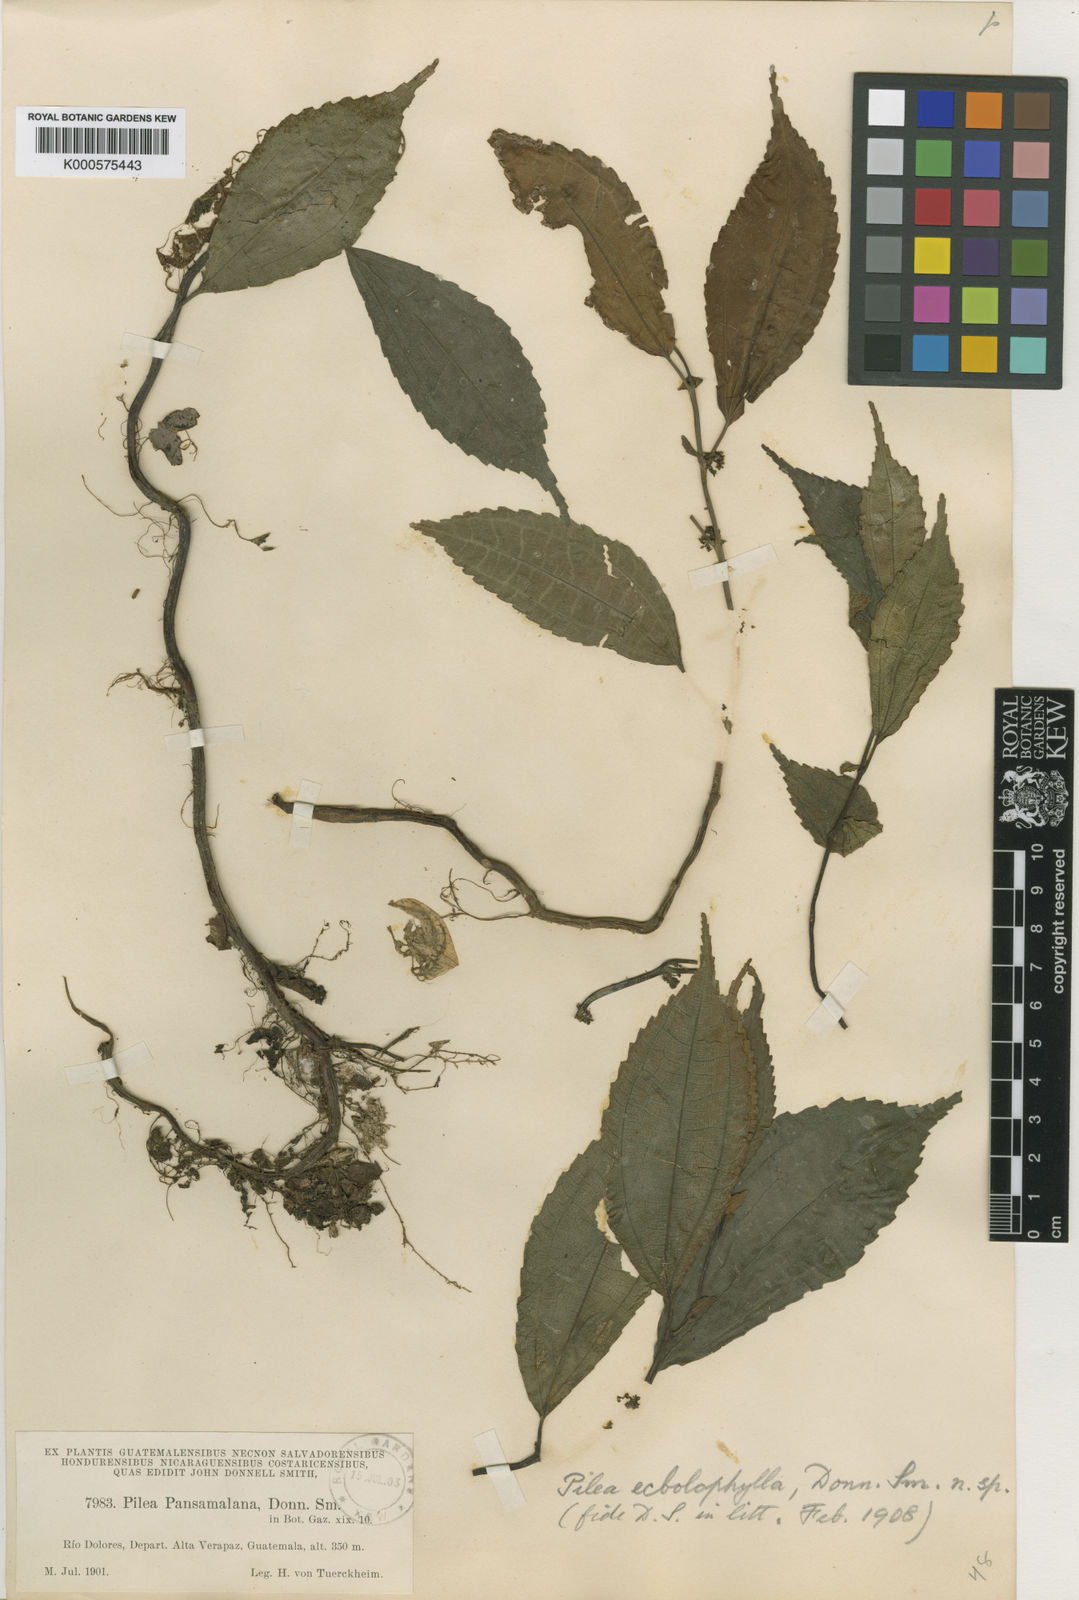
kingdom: Plantae
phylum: Tracheophyta
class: Magnoliopsida
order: Rosales
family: Urticaceae
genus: Pilea
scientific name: Pilea
